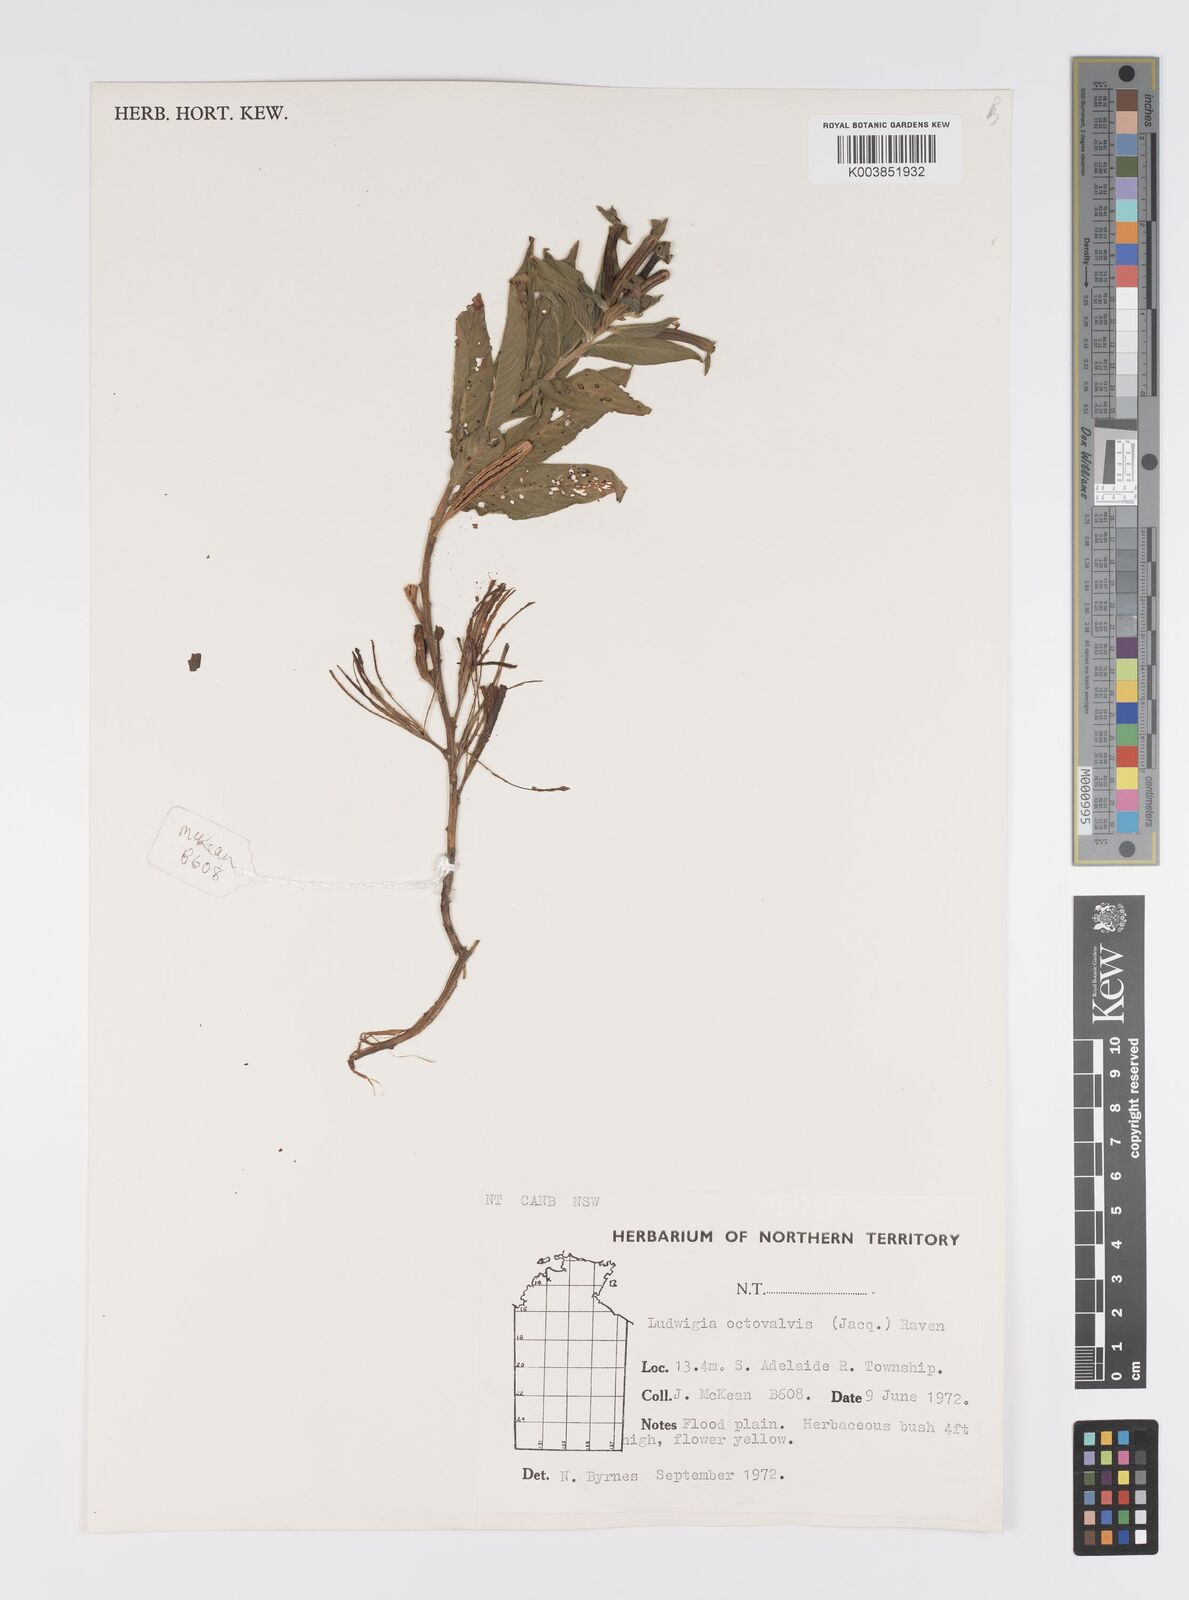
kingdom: Plantae
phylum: Tracheophyta
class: Magnoliopsida
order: Myrtales
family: Onagraceae
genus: Ludwigia
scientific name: Ludwigia octovalvis
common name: Water-primrose
